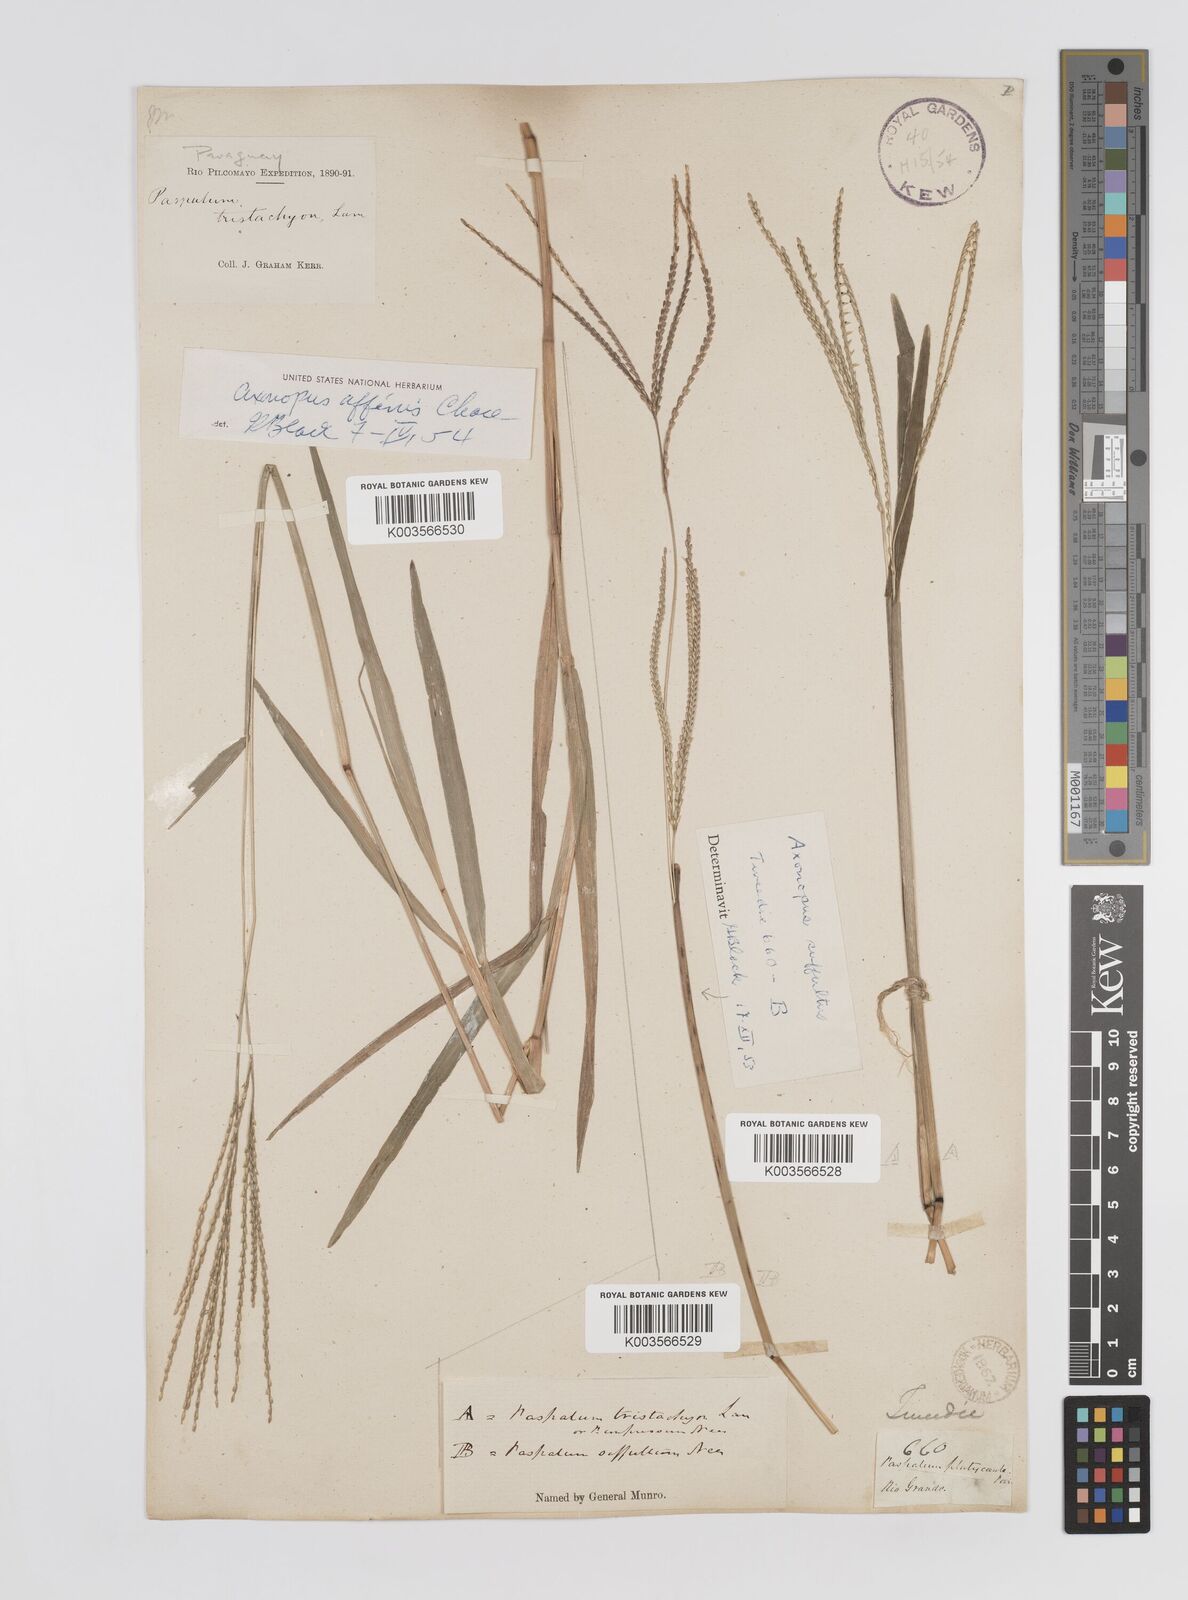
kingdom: Plantae
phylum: Tracheophyta
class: Liliopsida
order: Poales
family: Poaceae
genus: Axonopus
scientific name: Axonopus fissifolius
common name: Common carpetgrass
